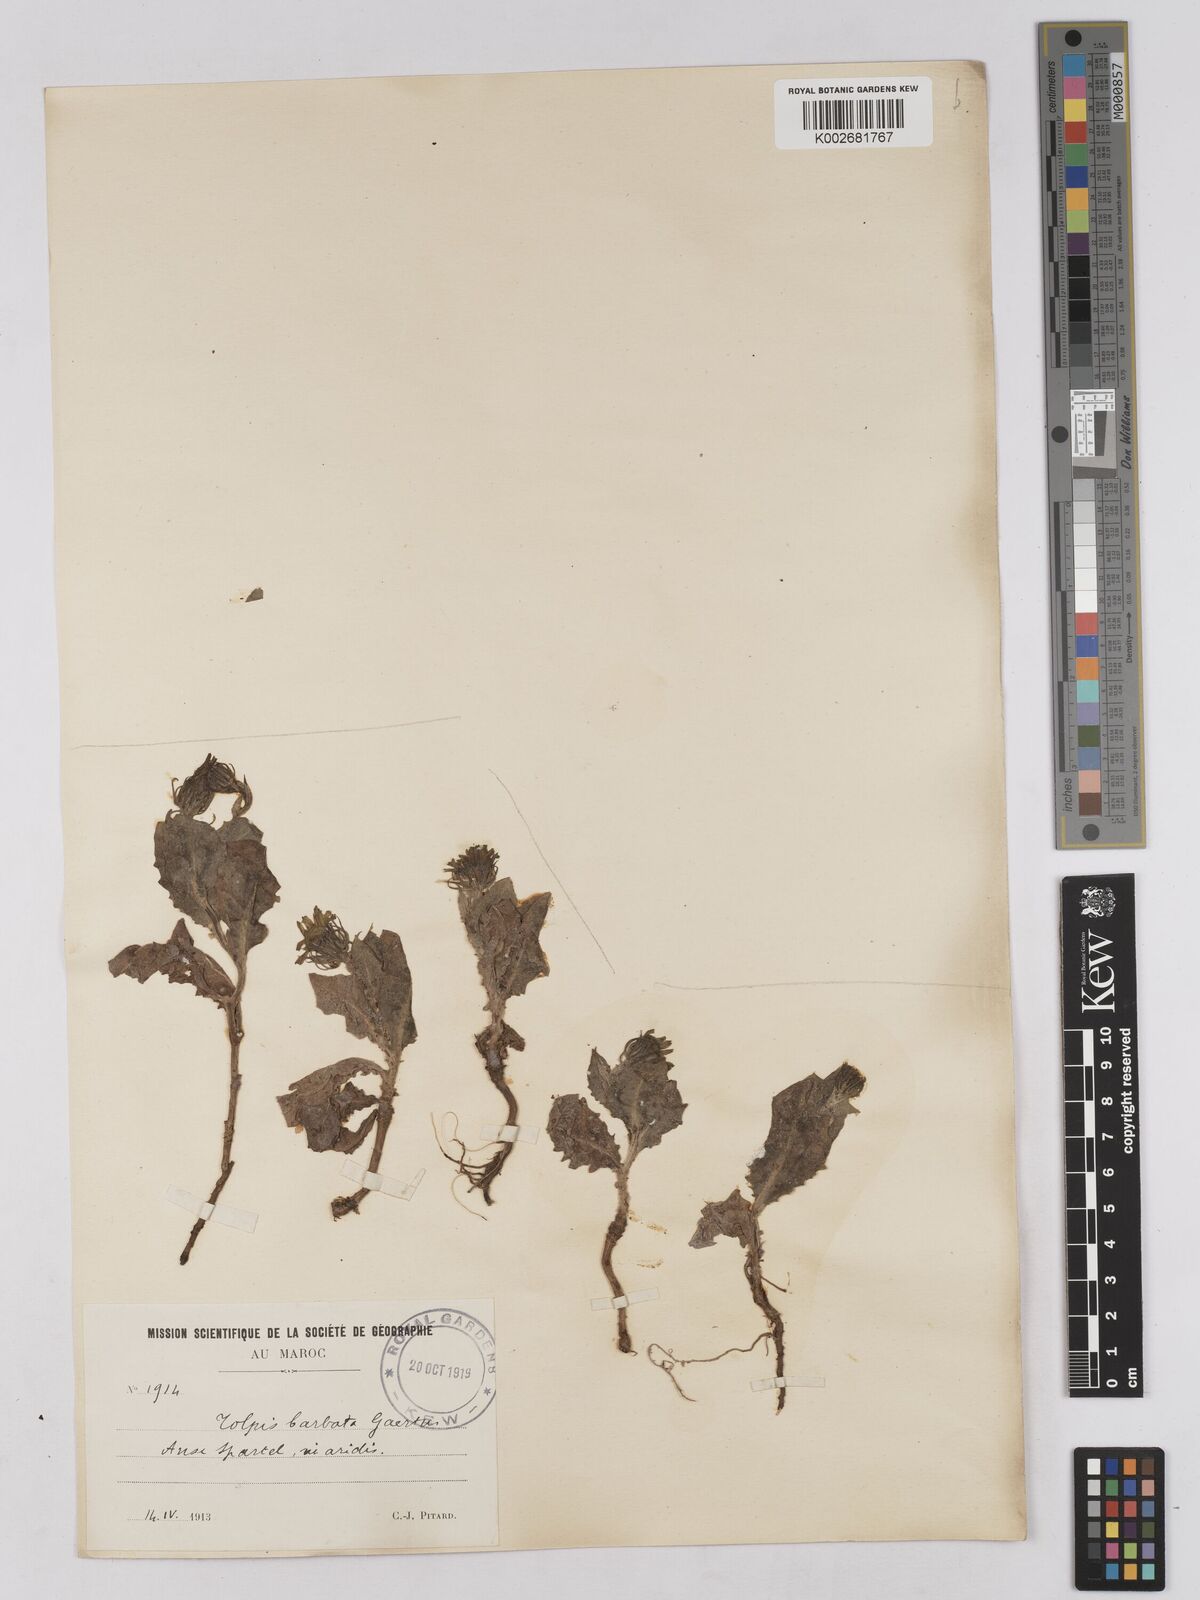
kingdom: Plantae
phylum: Tracheophyta
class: Magnoliopsida
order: Asterales
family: Asteraceae
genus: Tolpis
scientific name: Tolpis barbata
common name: Yellow hawkweed
